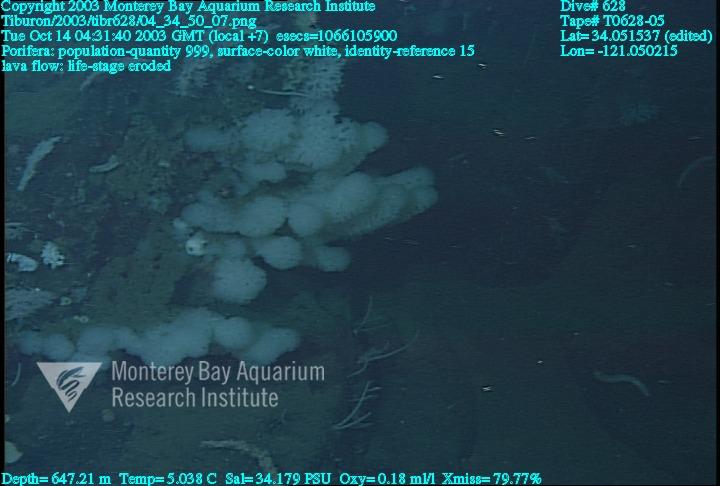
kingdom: Animalia
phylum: Porifera
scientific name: Porifera
